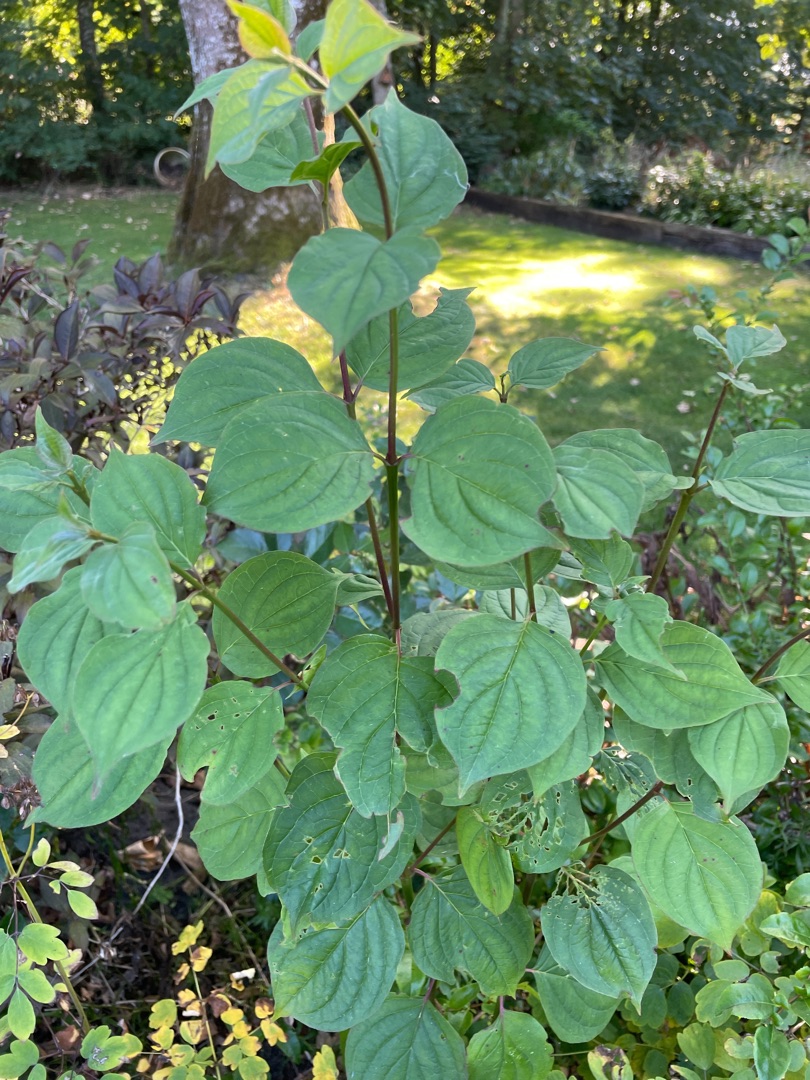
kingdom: Plantae
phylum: Tracheophyta
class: Magnoliopsida
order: Cornales
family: Cornaceae
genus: Cornus
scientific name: Cornus sanguinea
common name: Rød kornel
